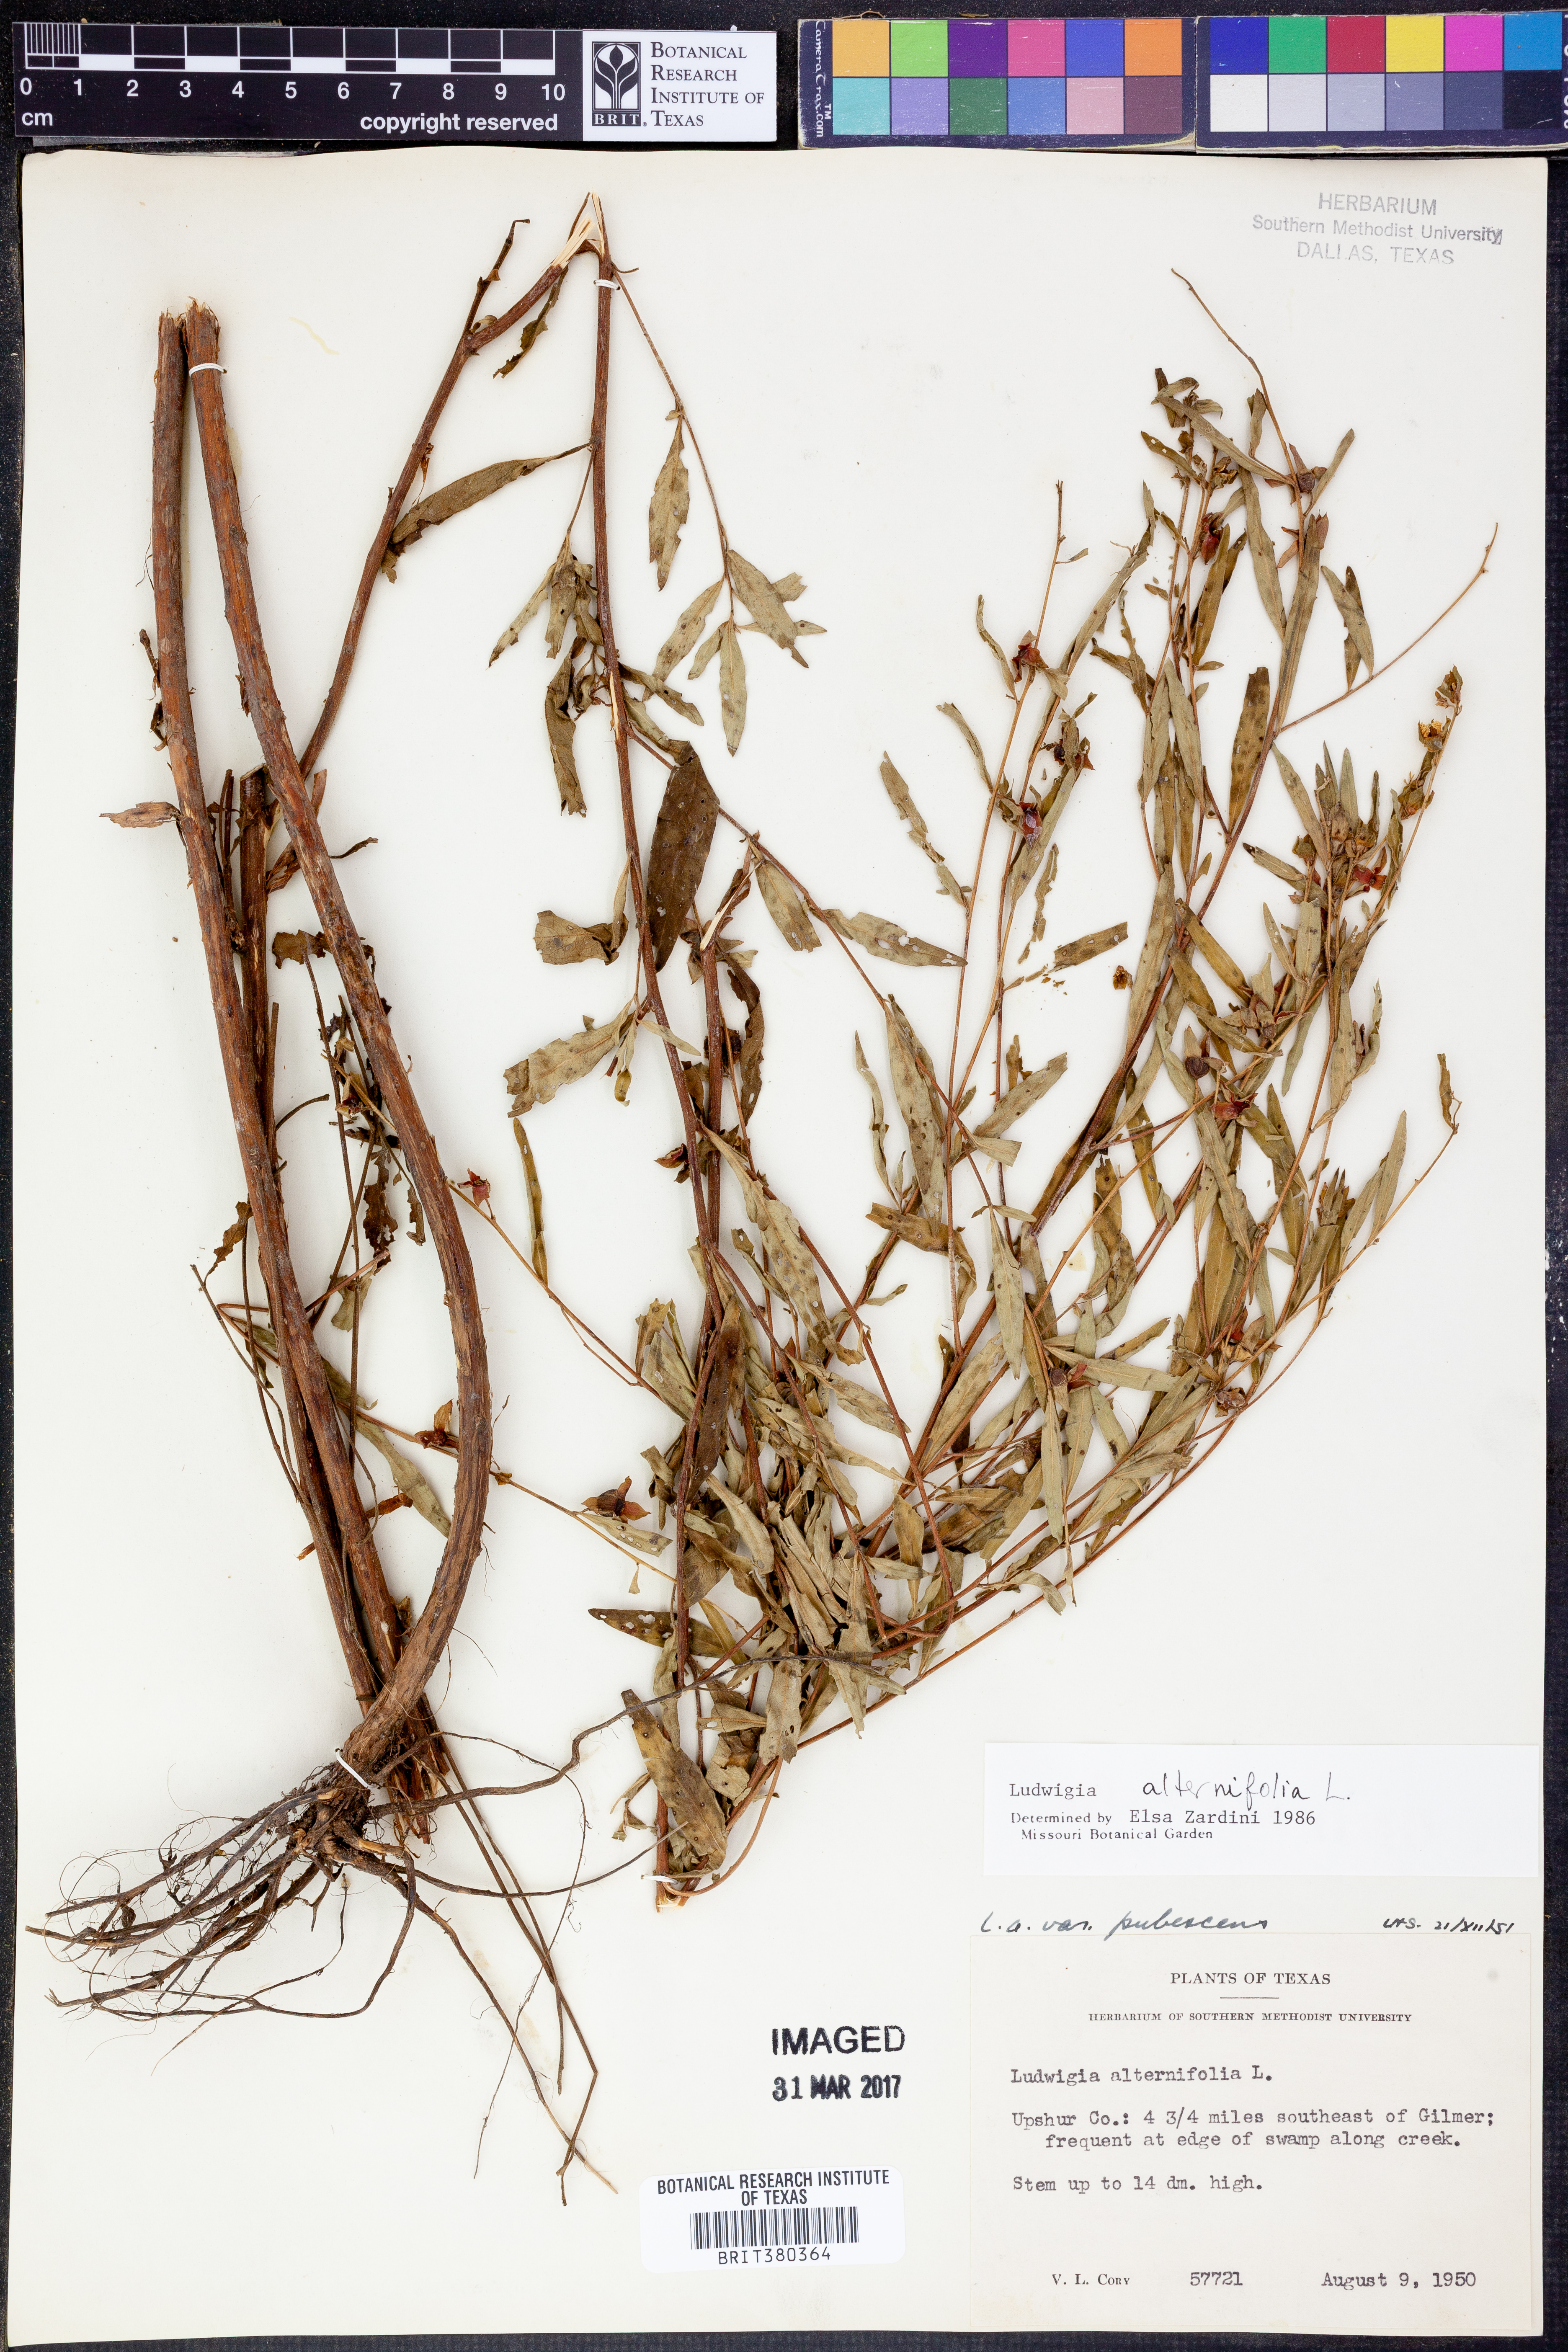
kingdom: Plantae
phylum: Tracheophyta
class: Magnoliopsida
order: Myrtales
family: Onagraceae
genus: Ludwigia
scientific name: Ludwigia alternifolia
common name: Rattlebox
